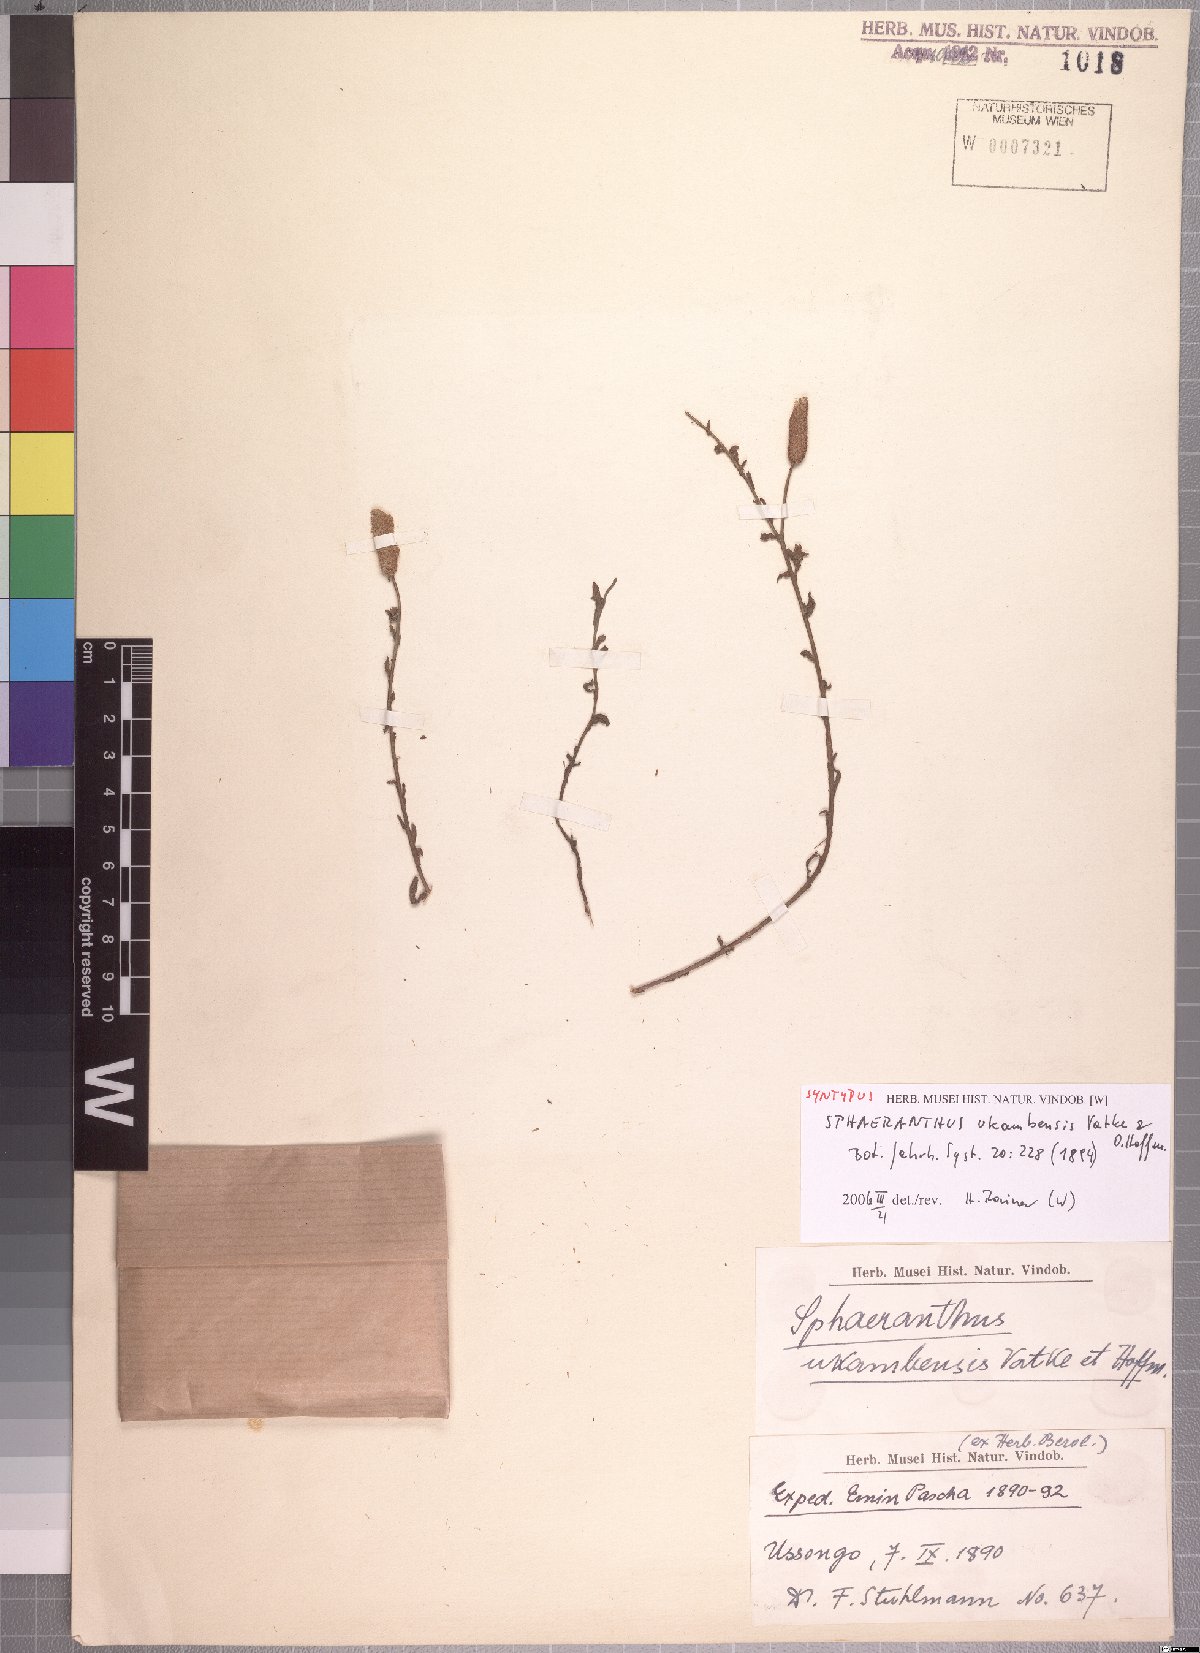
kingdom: Plantae
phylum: Tracheophyta
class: Magnoliopsida
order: Asterales
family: Asteraceae
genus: Sphaeranthus
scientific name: Sphaeranthus ukambensis
